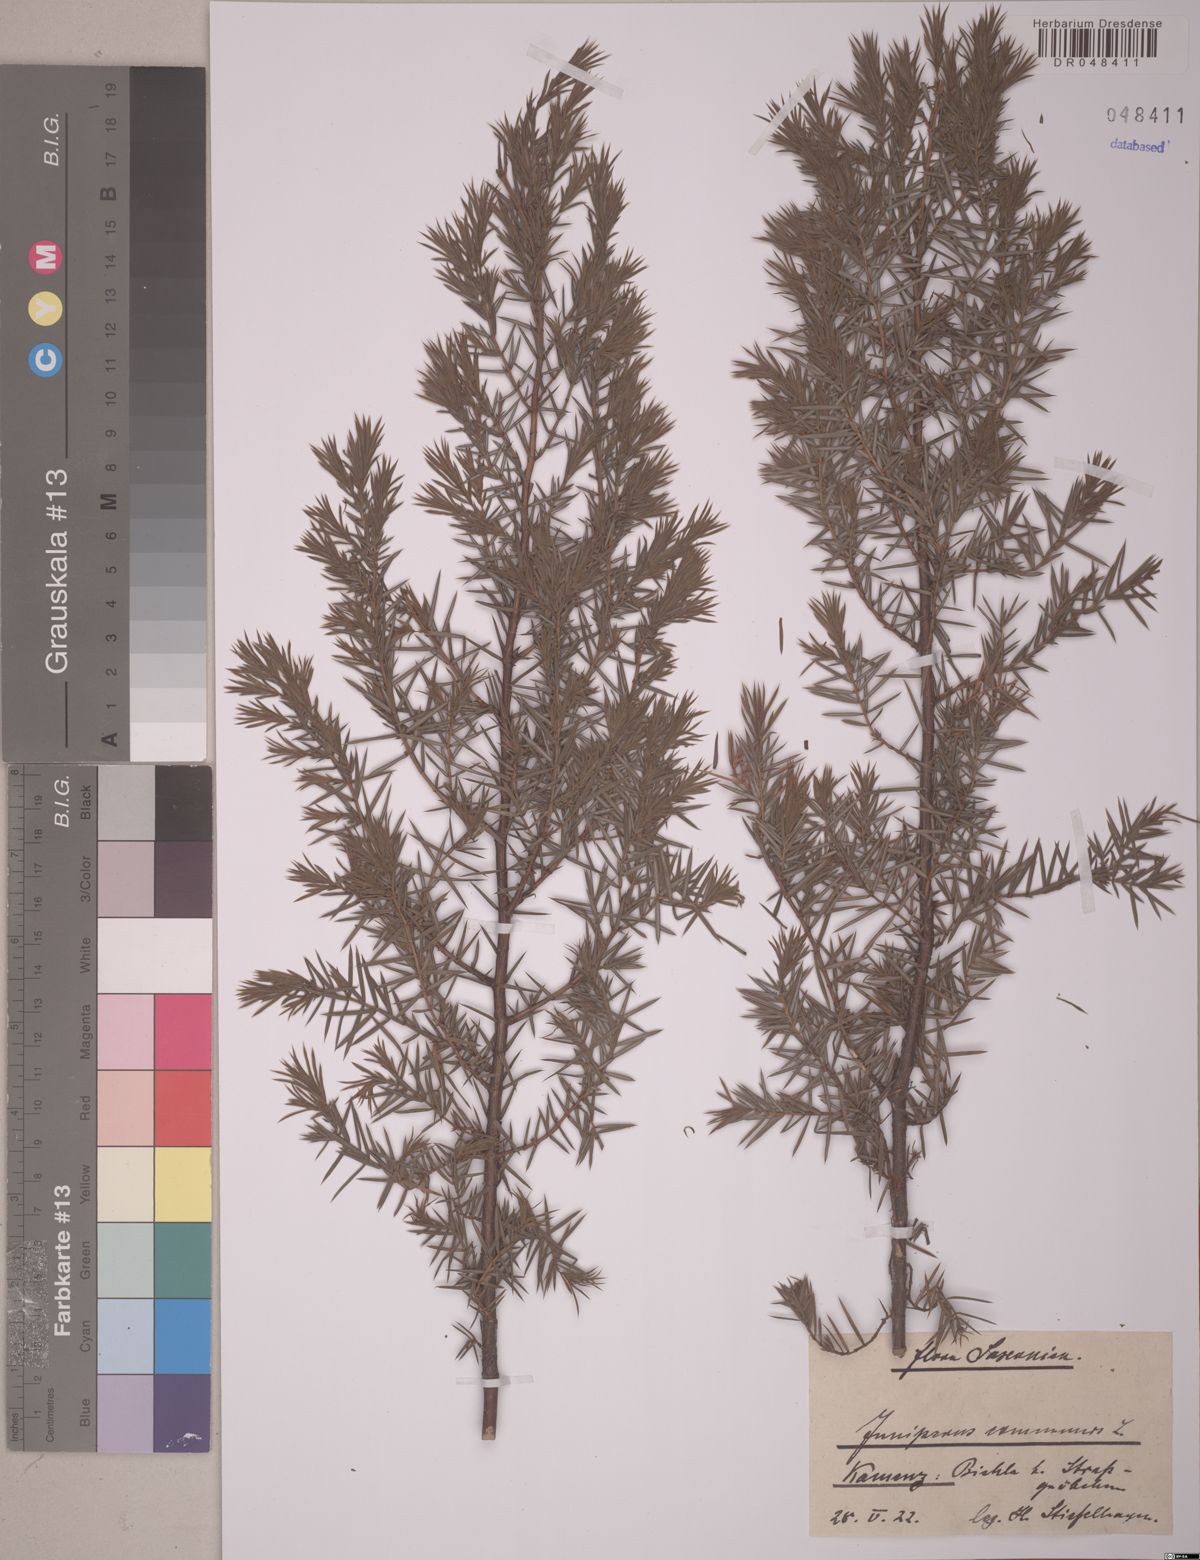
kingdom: Plantae
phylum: Tracheophyta
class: Pinopsida
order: Pinales
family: Cupressaceae
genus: Juniperus
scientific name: Juniperus communis
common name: Common juniper
